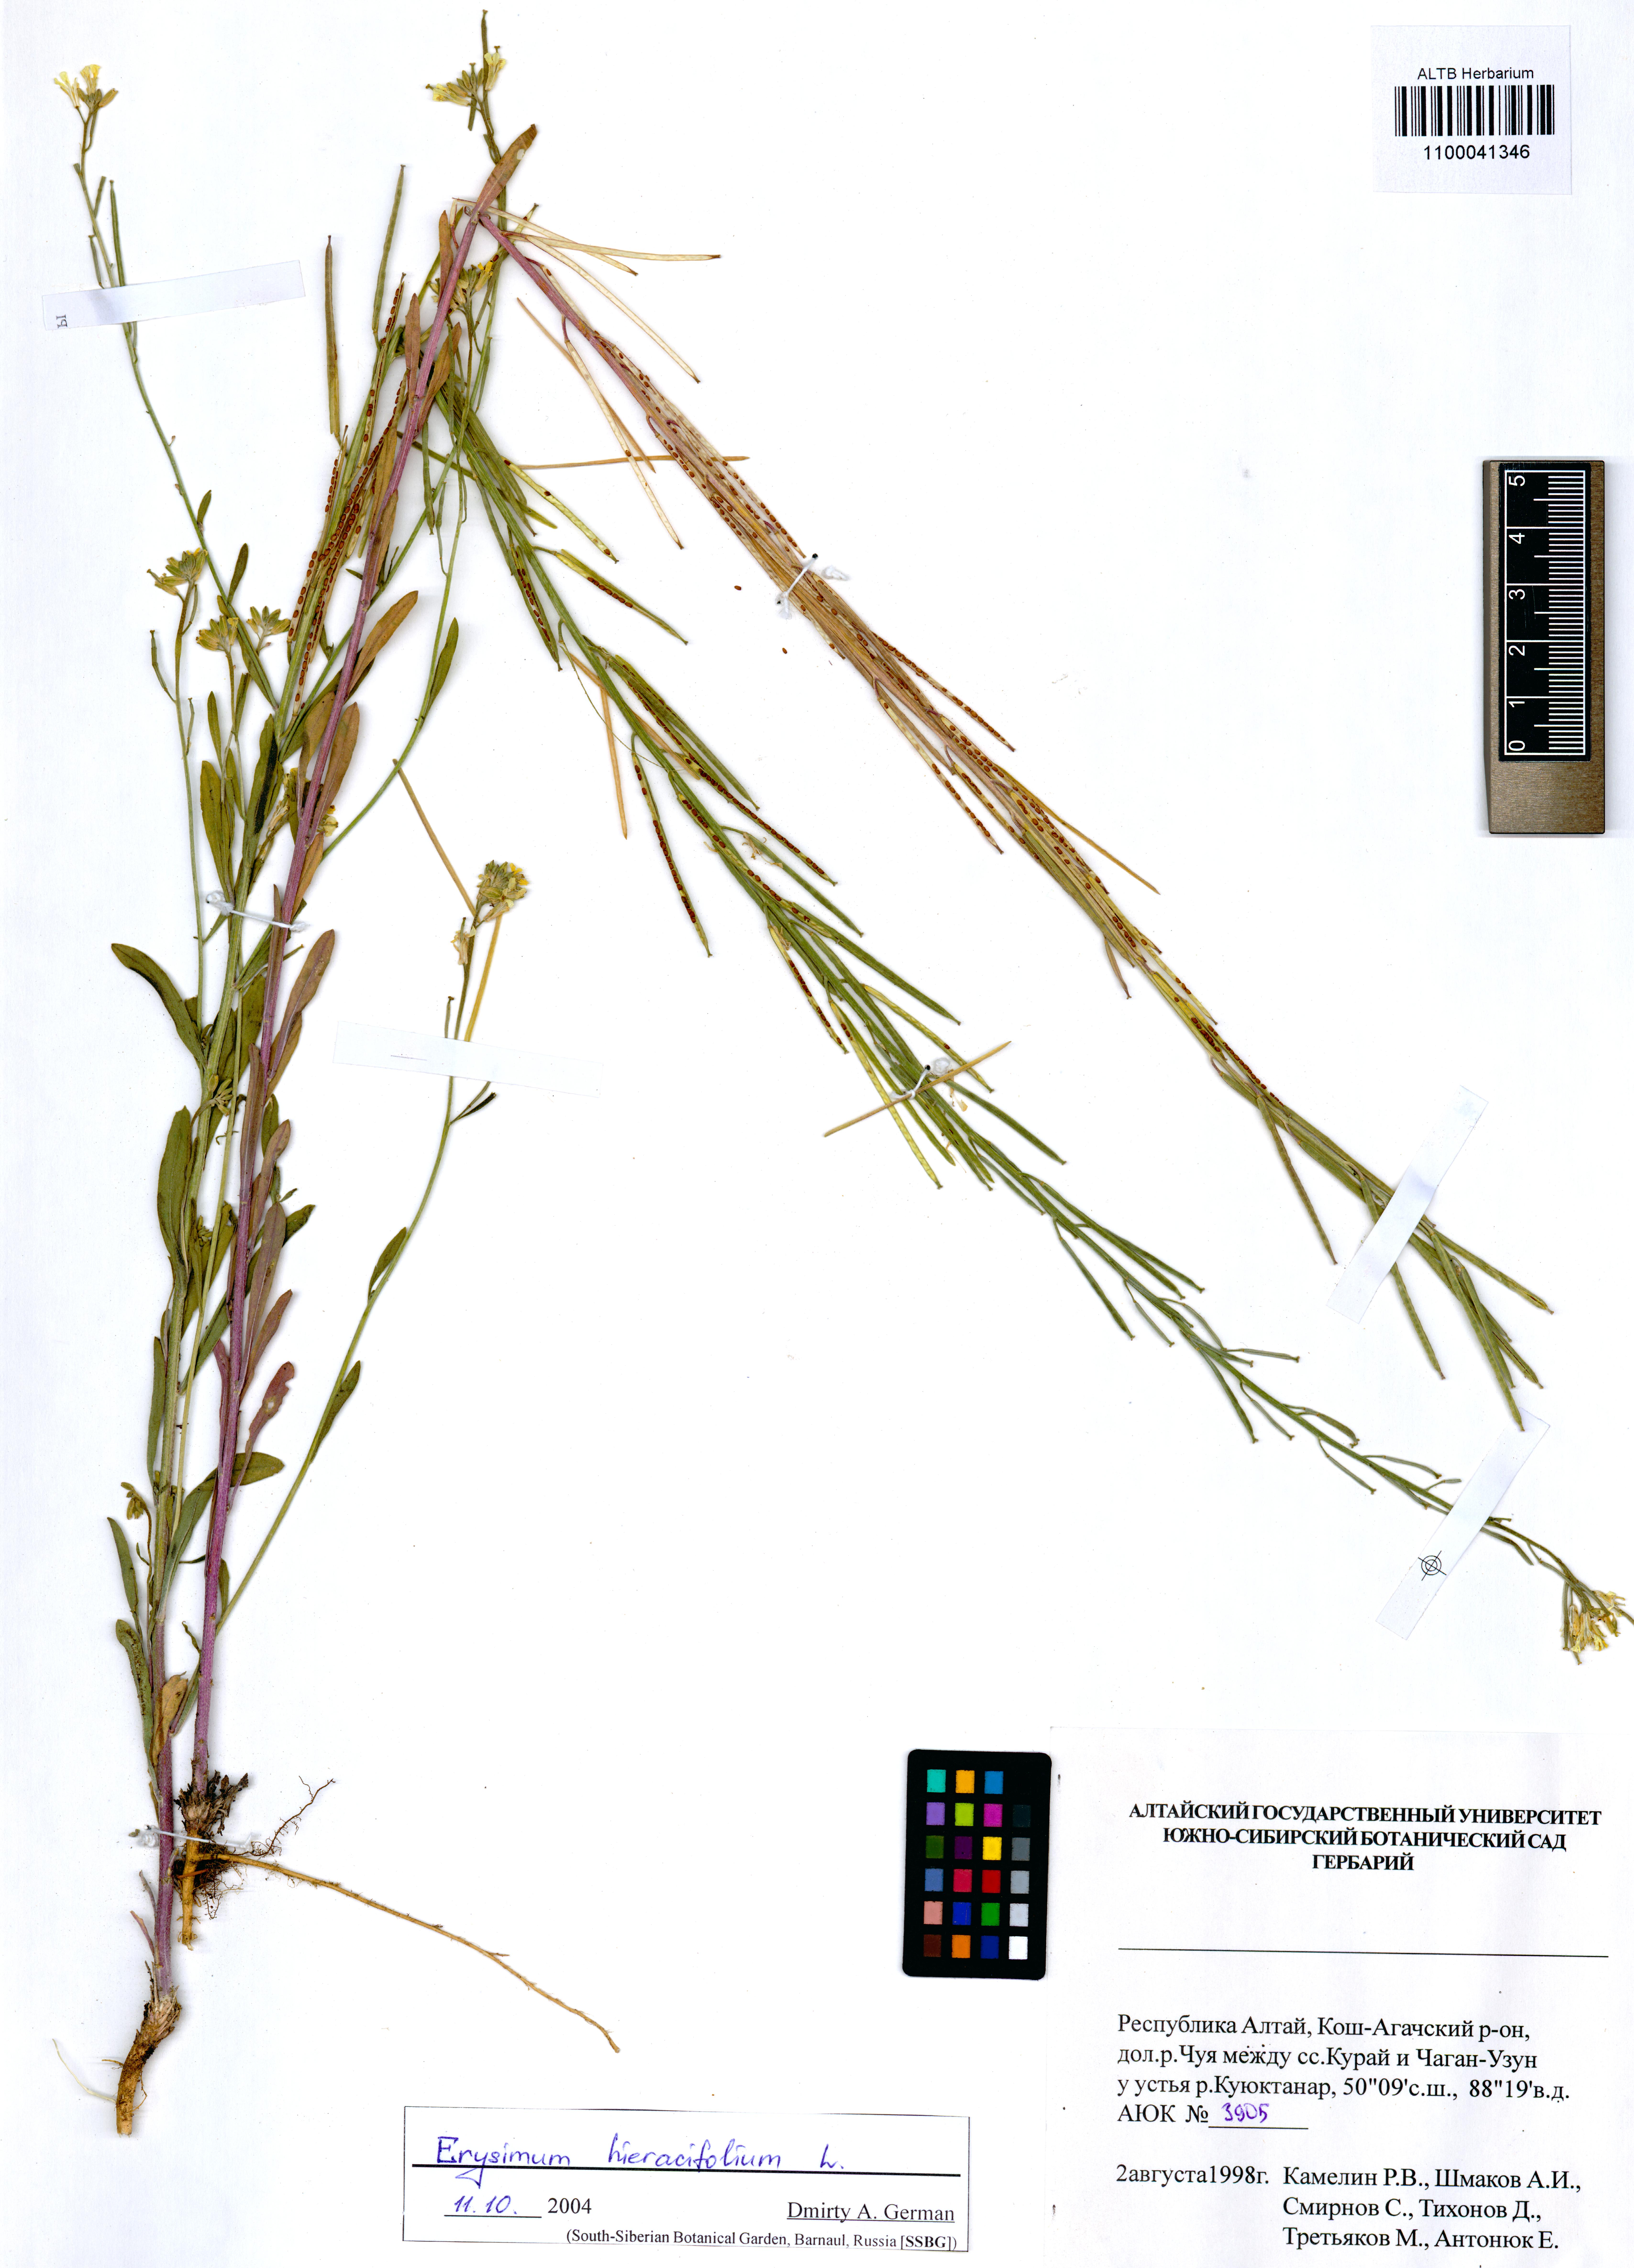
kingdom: Plantae
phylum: Tracheophyta
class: Magnoliopsida
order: Brassicales
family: Brassicaceae
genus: Erysimum
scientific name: Erysimum hieraciifolium
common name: European wallflower
